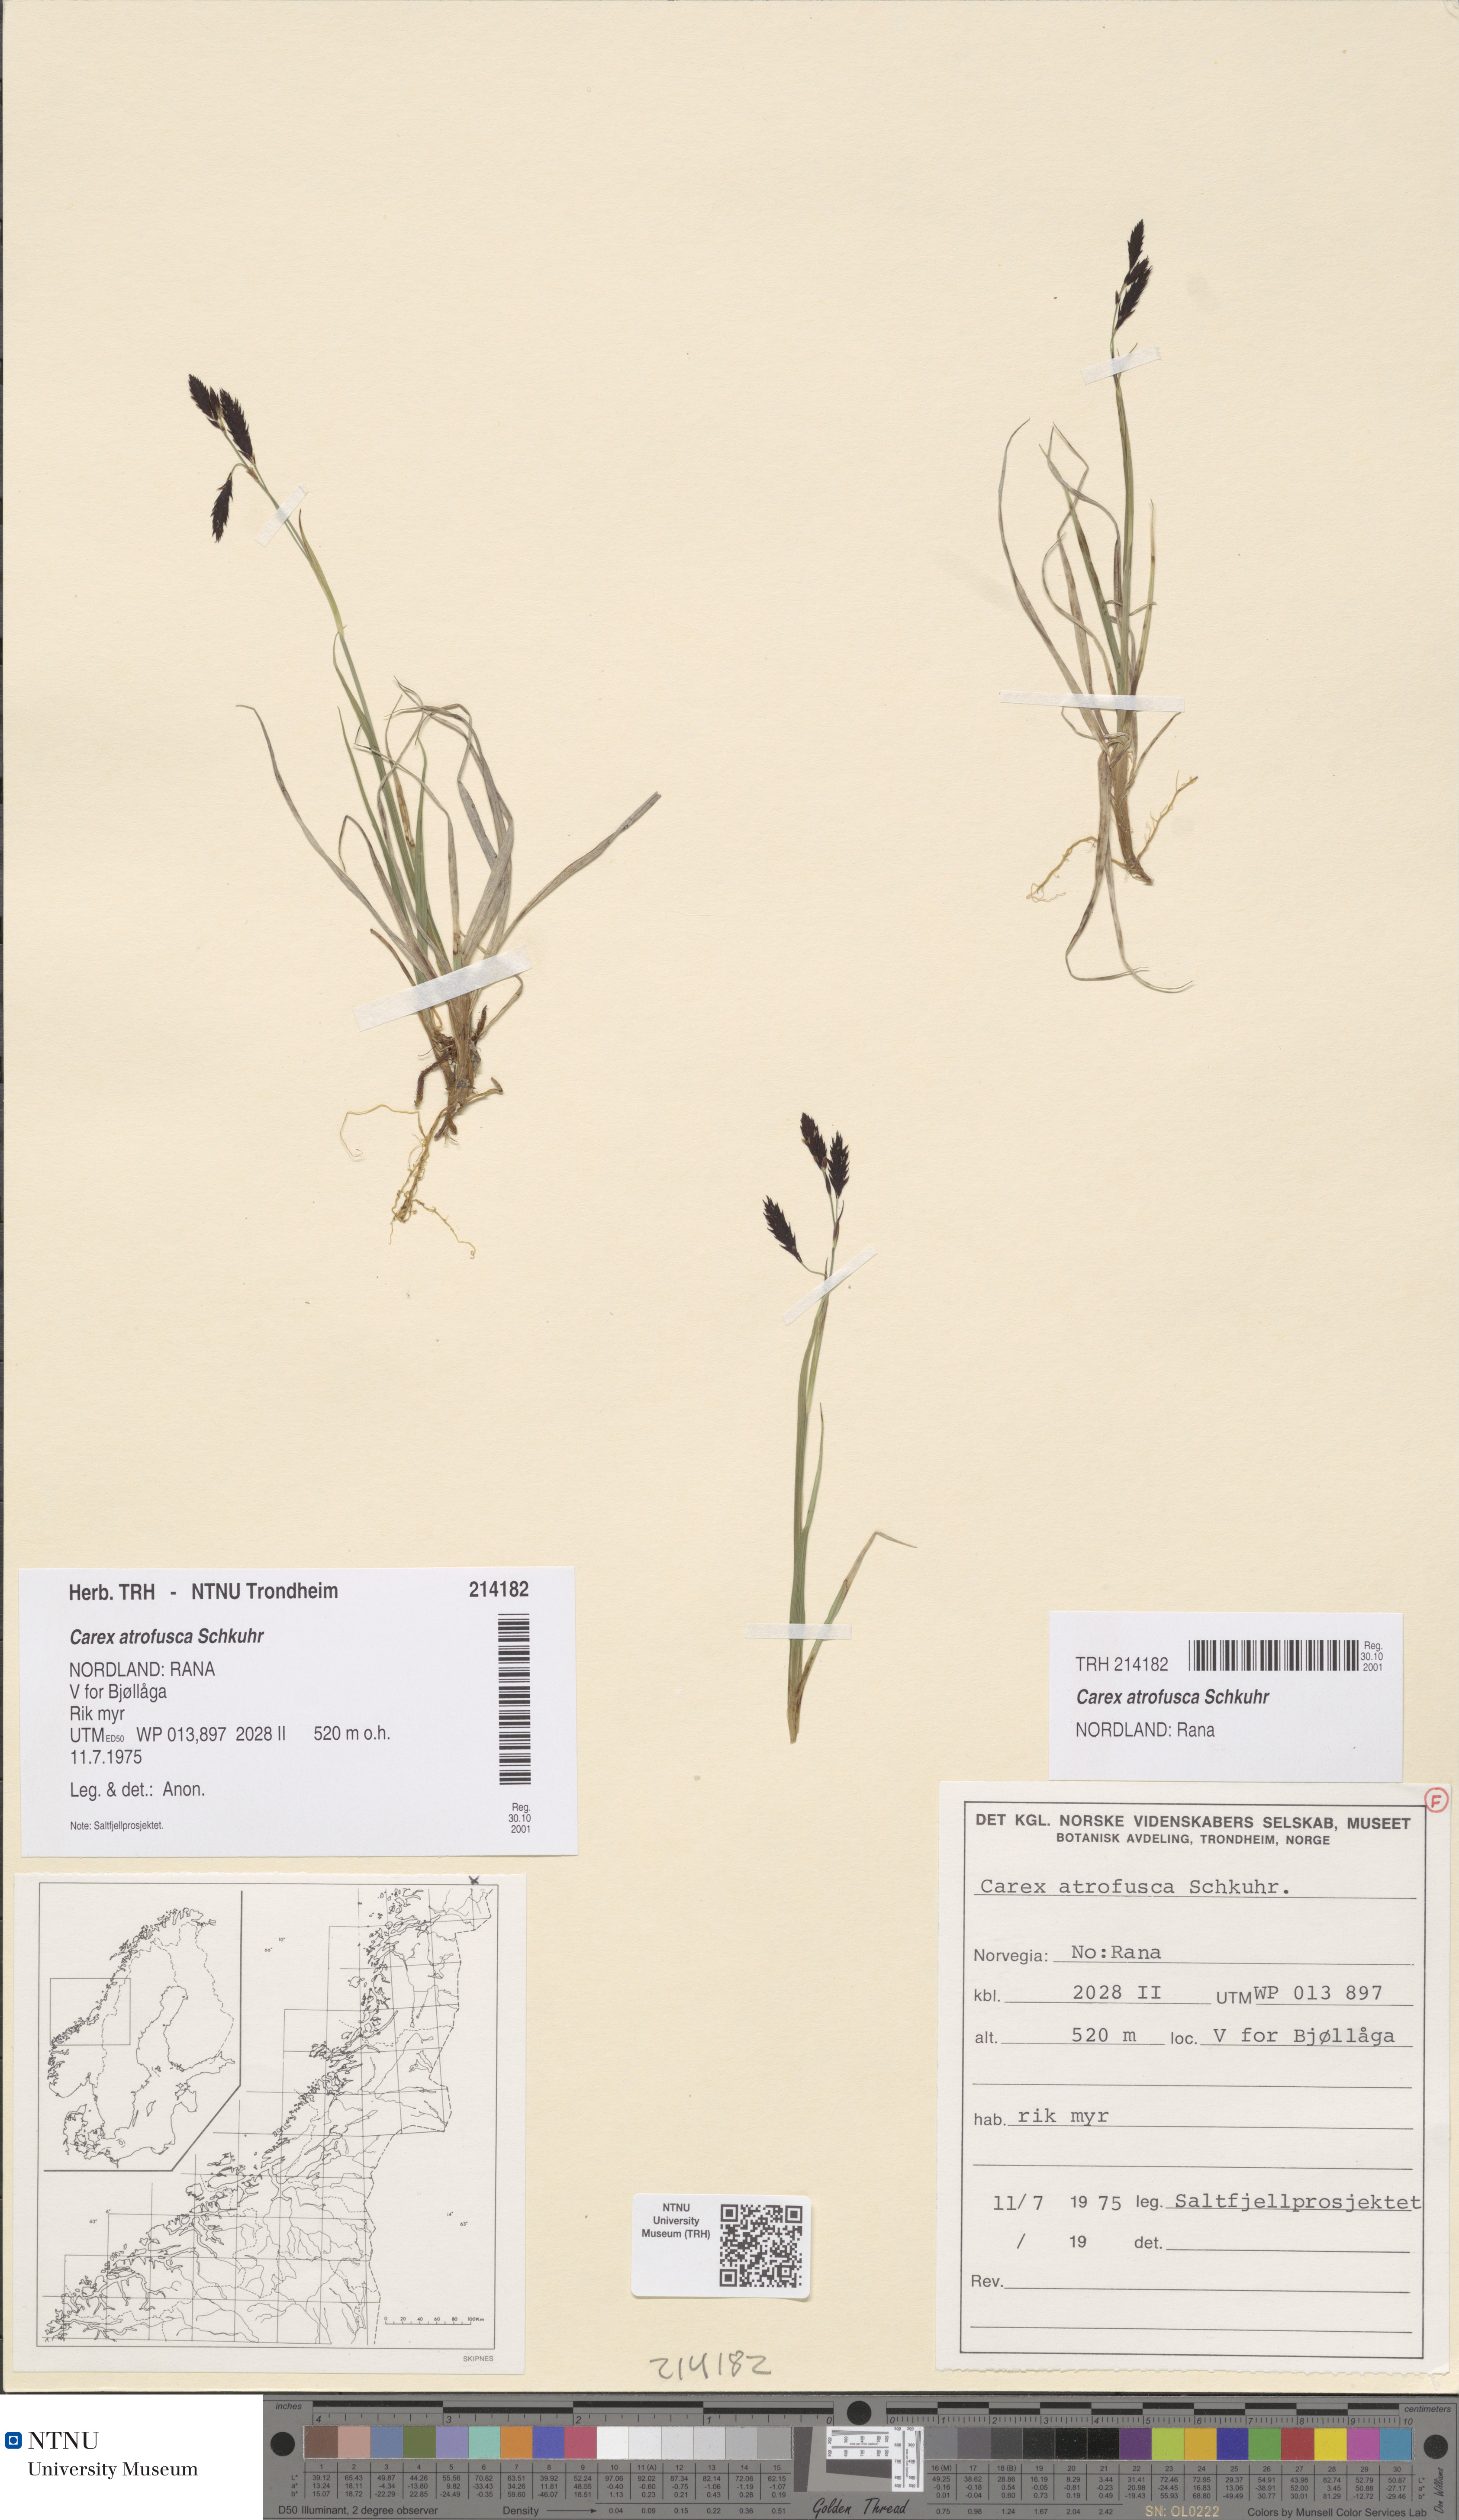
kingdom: Plantae
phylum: Tracheophyta
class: Liliopsida
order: Poales
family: Cyperaceae
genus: Carex
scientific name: Carex atrofusca
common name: Scorched alpine-sedge
